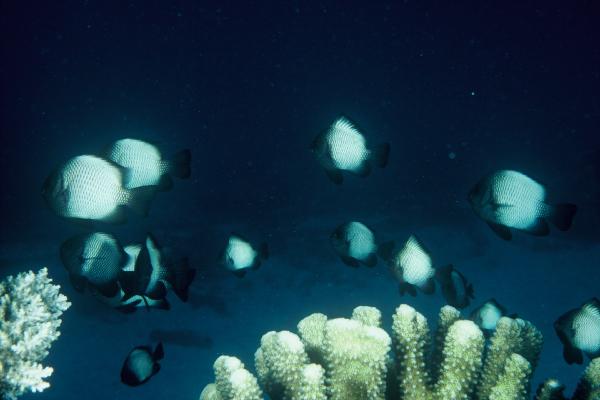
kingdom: Animalia
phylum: Chordata
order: Perciformes
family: Pomacentridae
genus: Dascyllus
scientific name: Dascyllus albisella
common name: Hawaiian dascyllus
